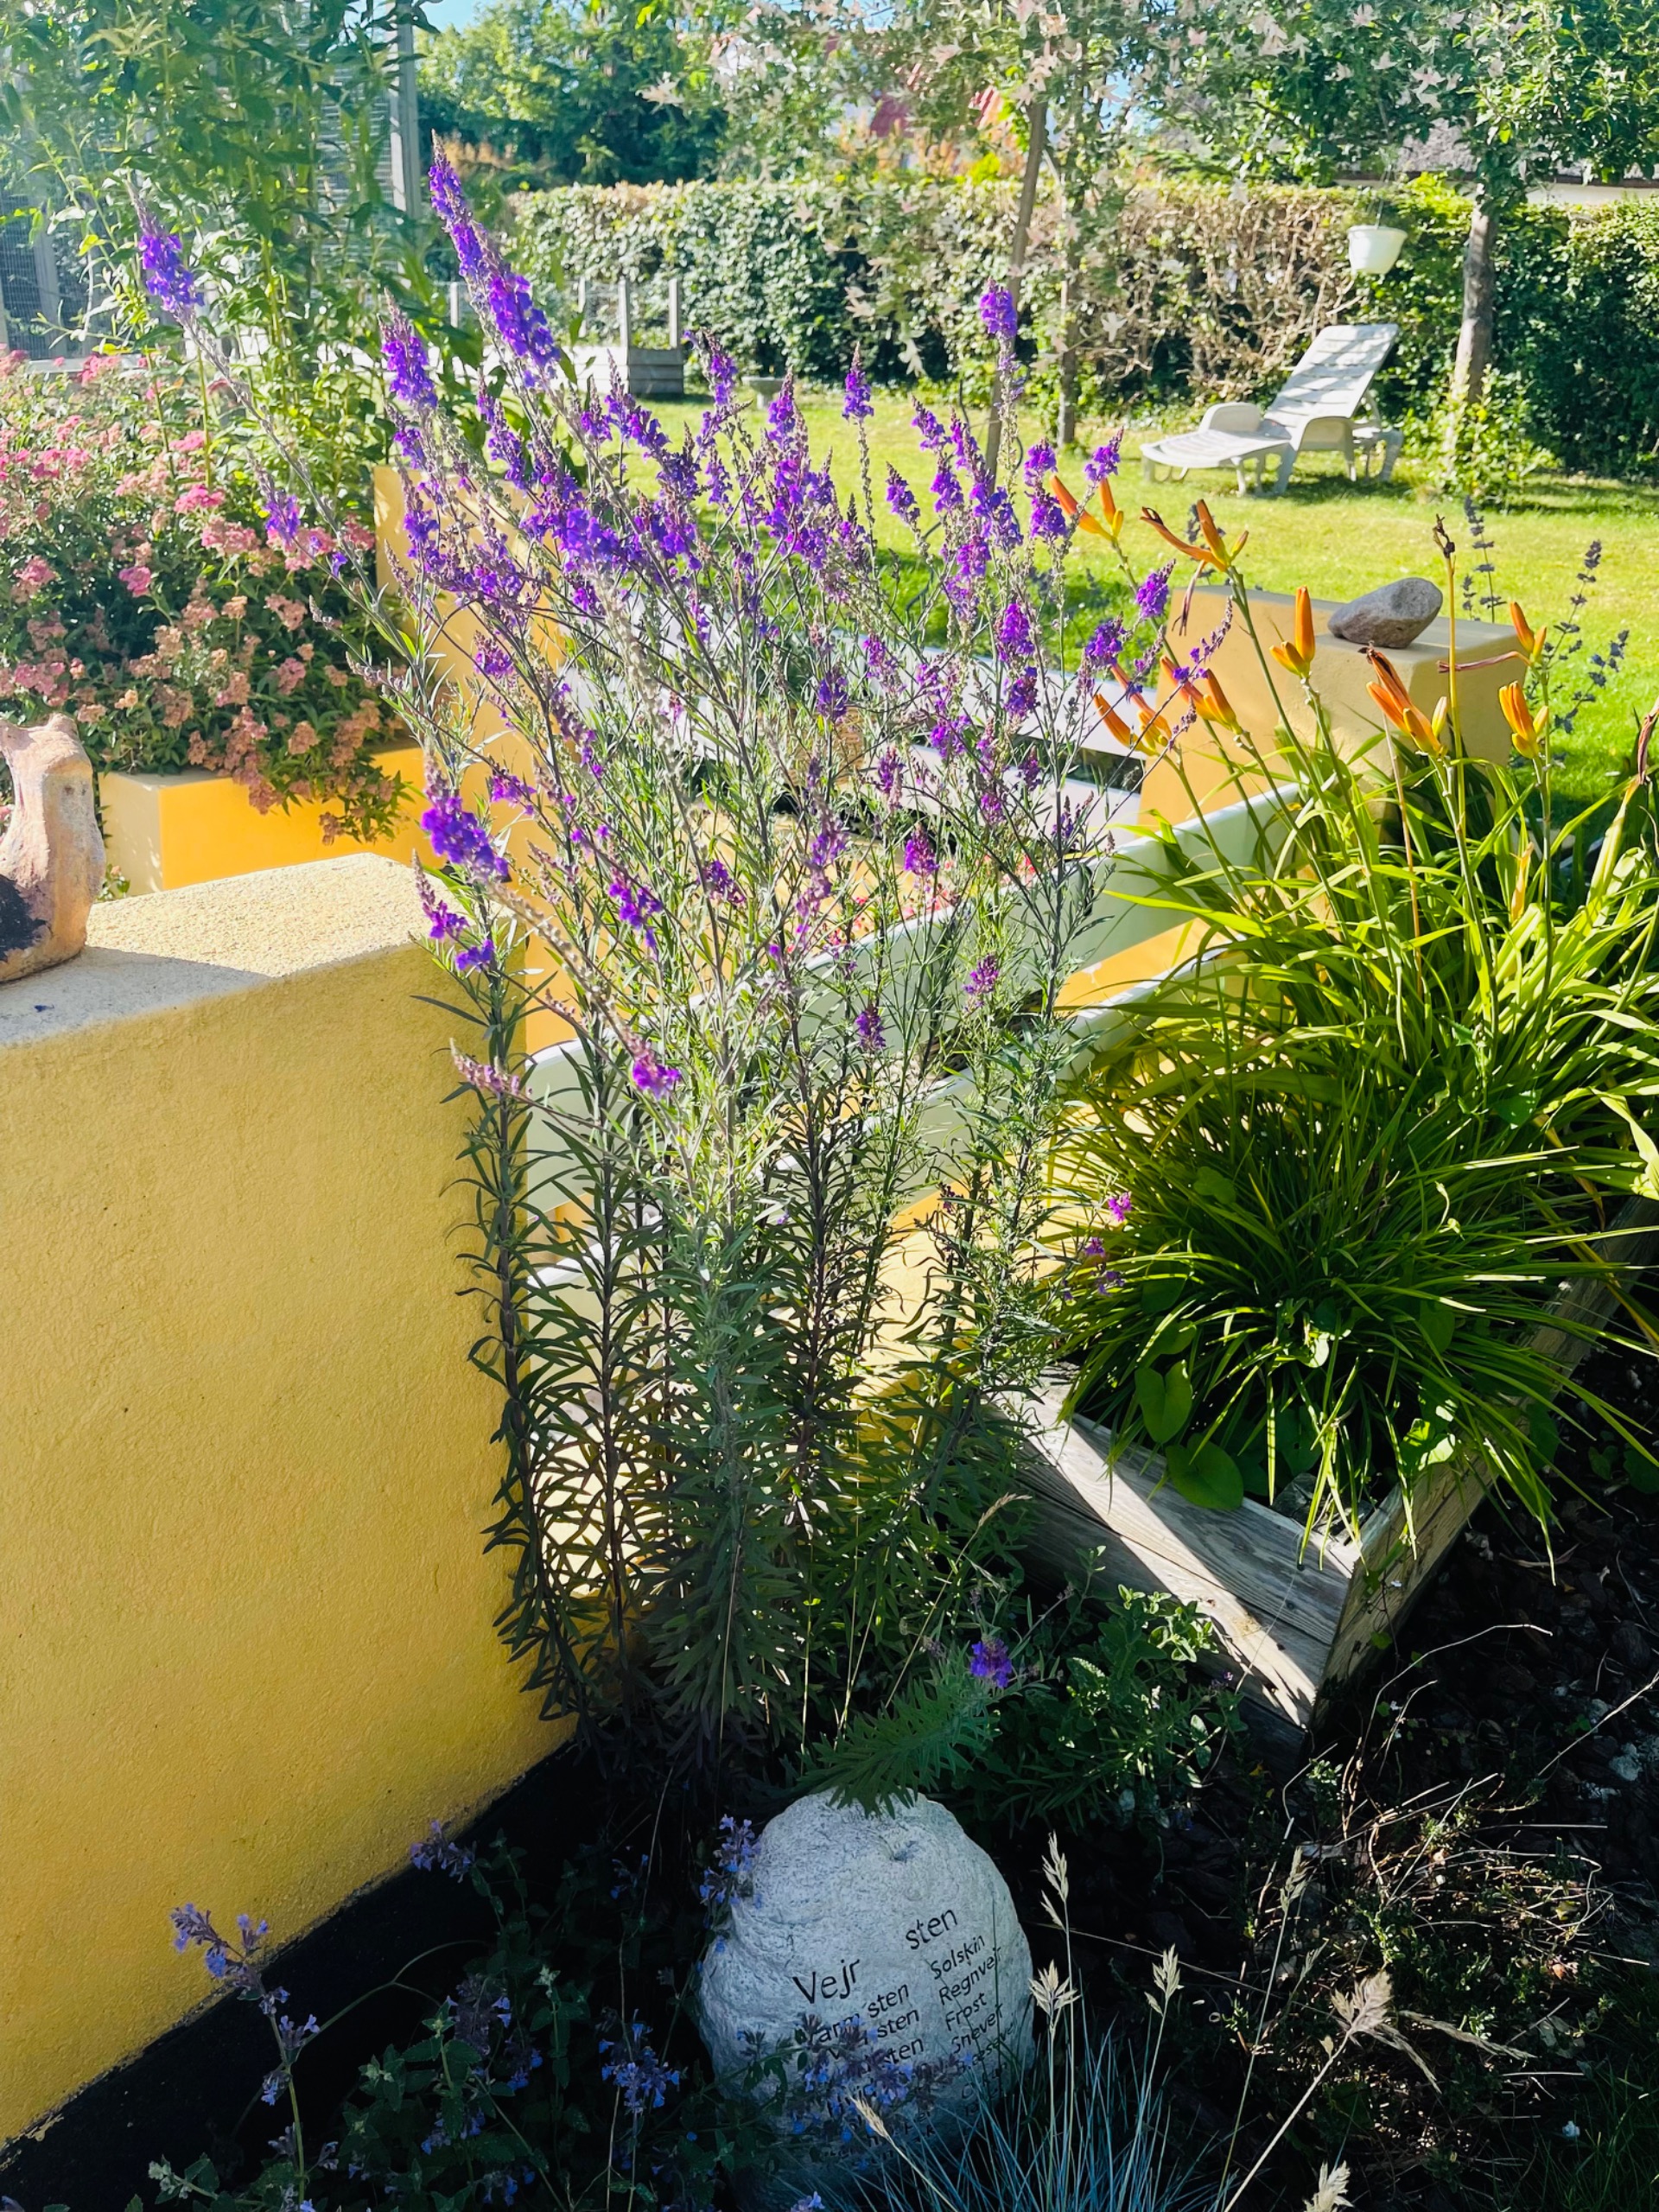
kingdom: Plantae
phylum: Tracheophyta
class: Magnoliopsida
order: Lamiales
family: Plantaginaceae
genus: Linaria
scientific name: Linaria purpurea
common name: Purpur-torskemund
